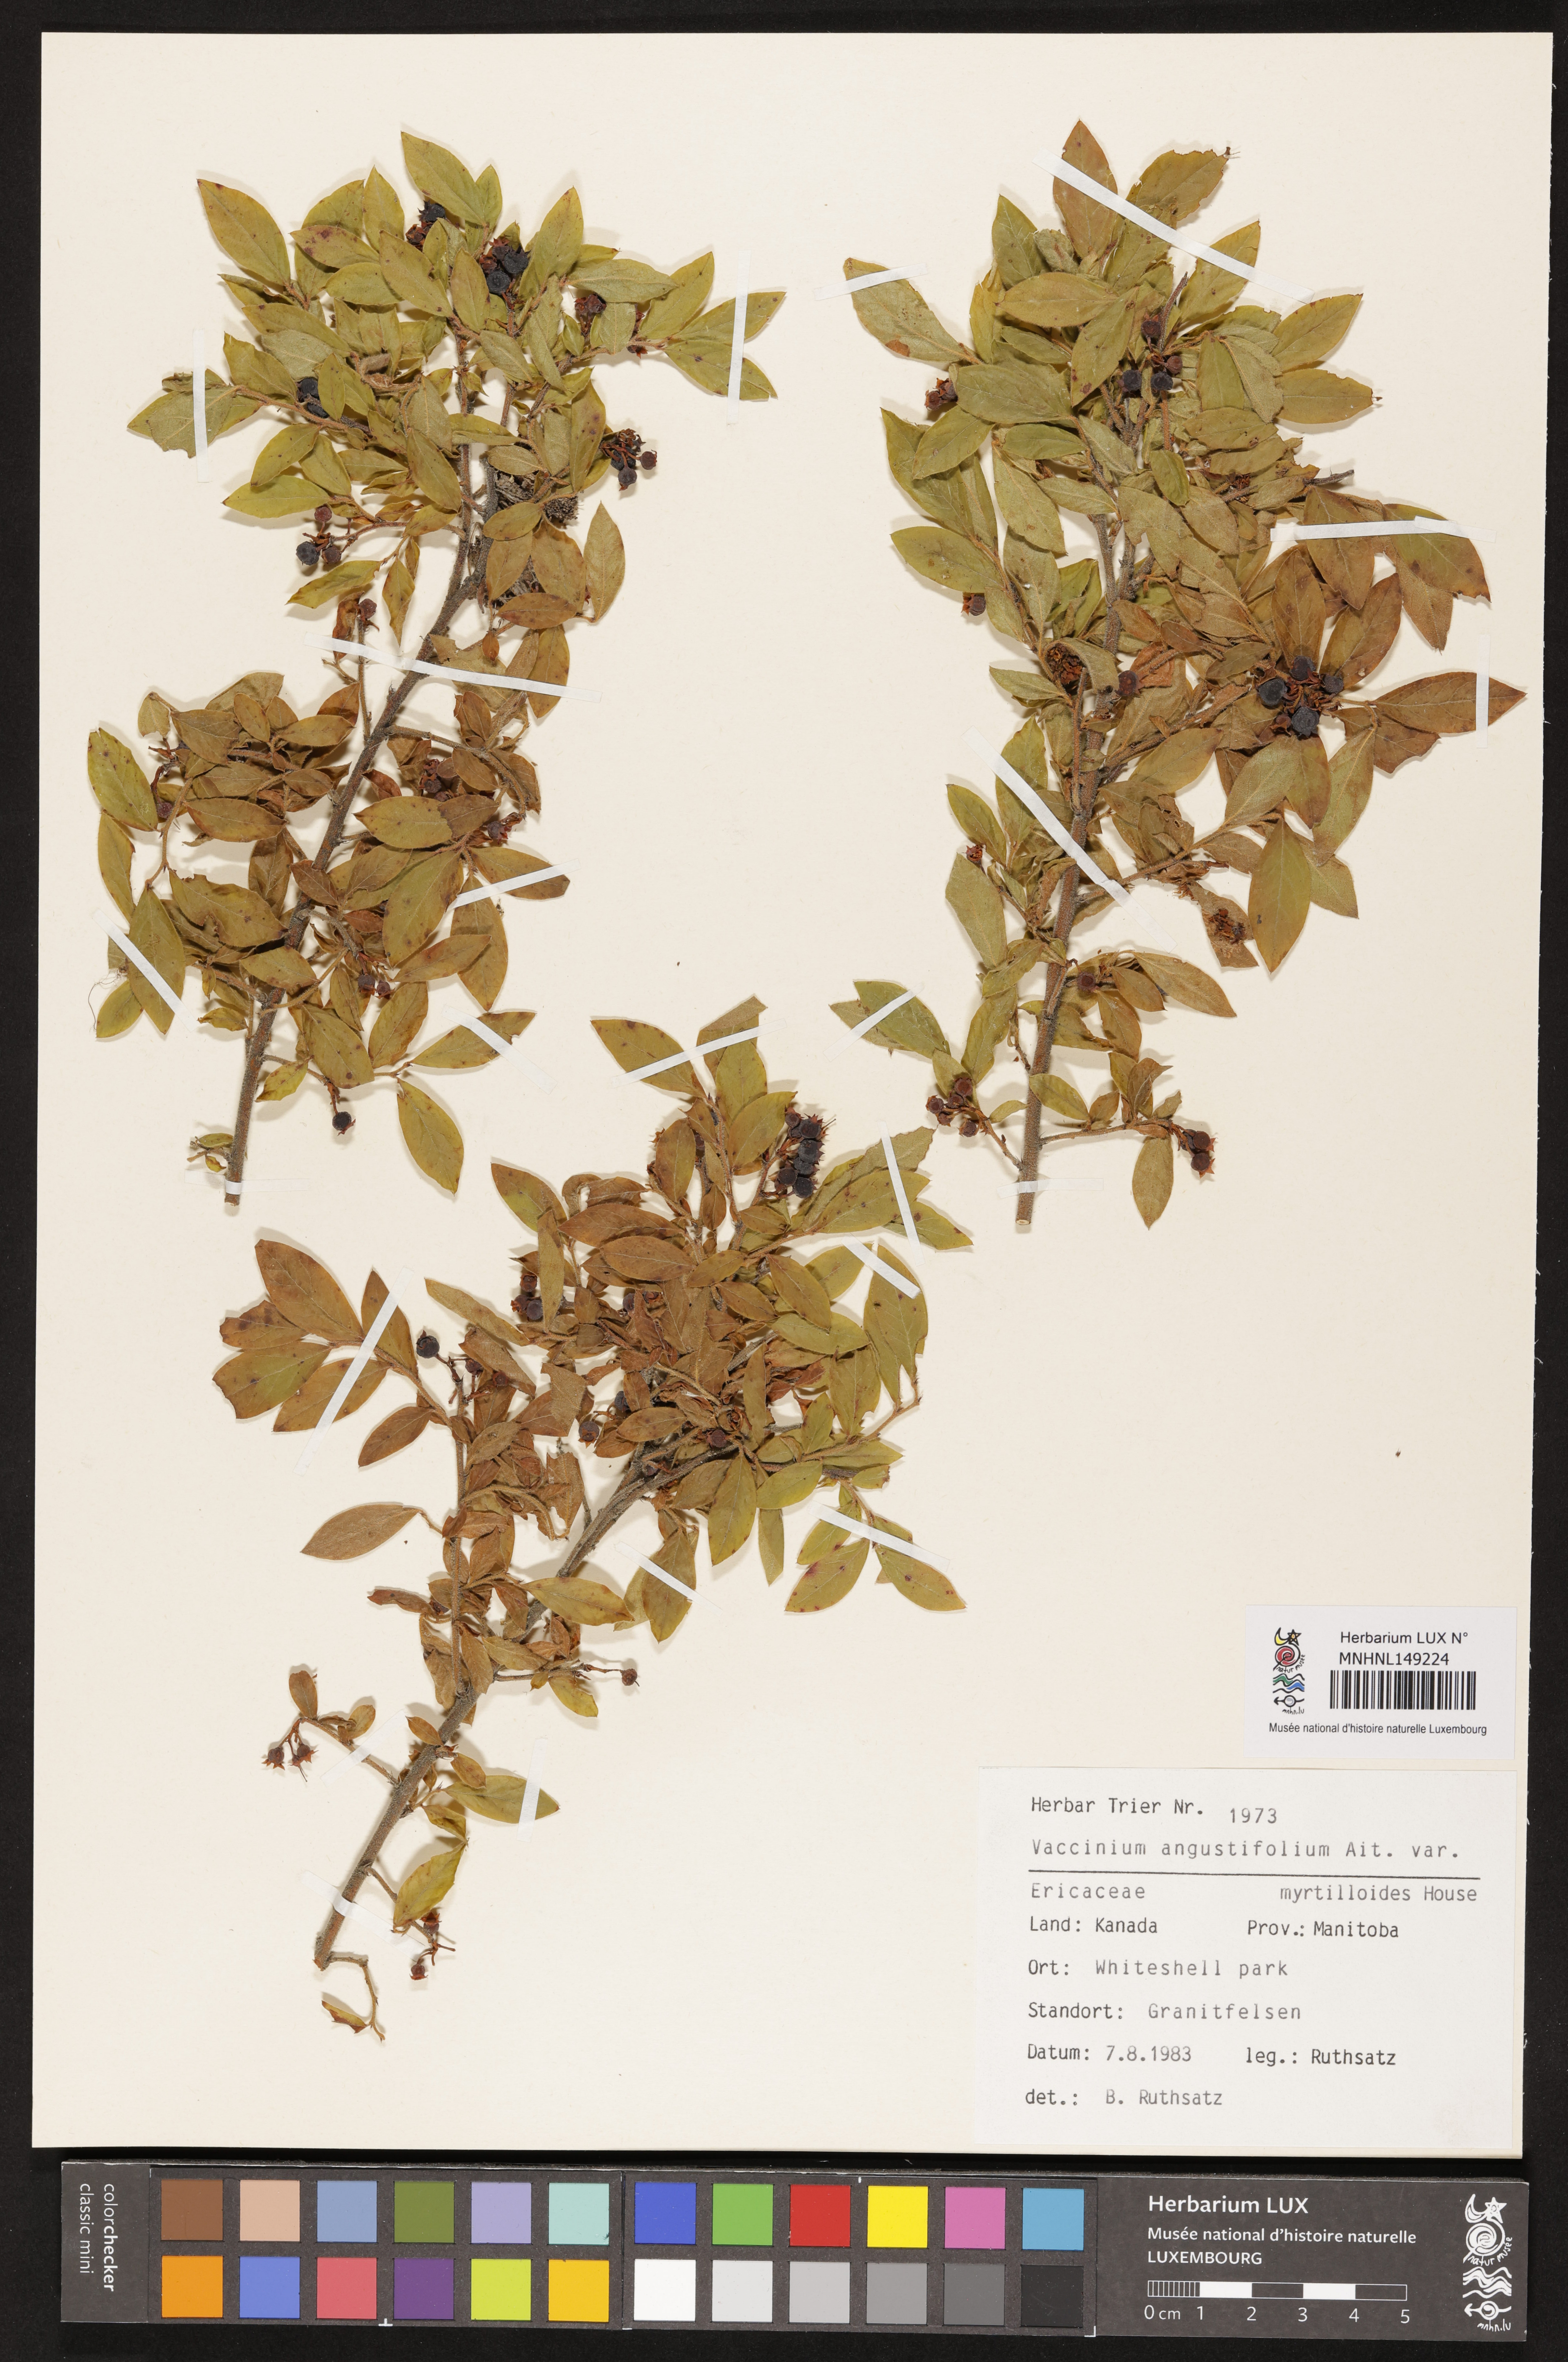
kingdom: Plantae
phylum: Tracheophyta
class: Magnoliopsida
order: Ericales
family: Ericaceae
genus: Vaccinium
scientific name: Vaccinium myrtilloides
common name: Canada blueberry
